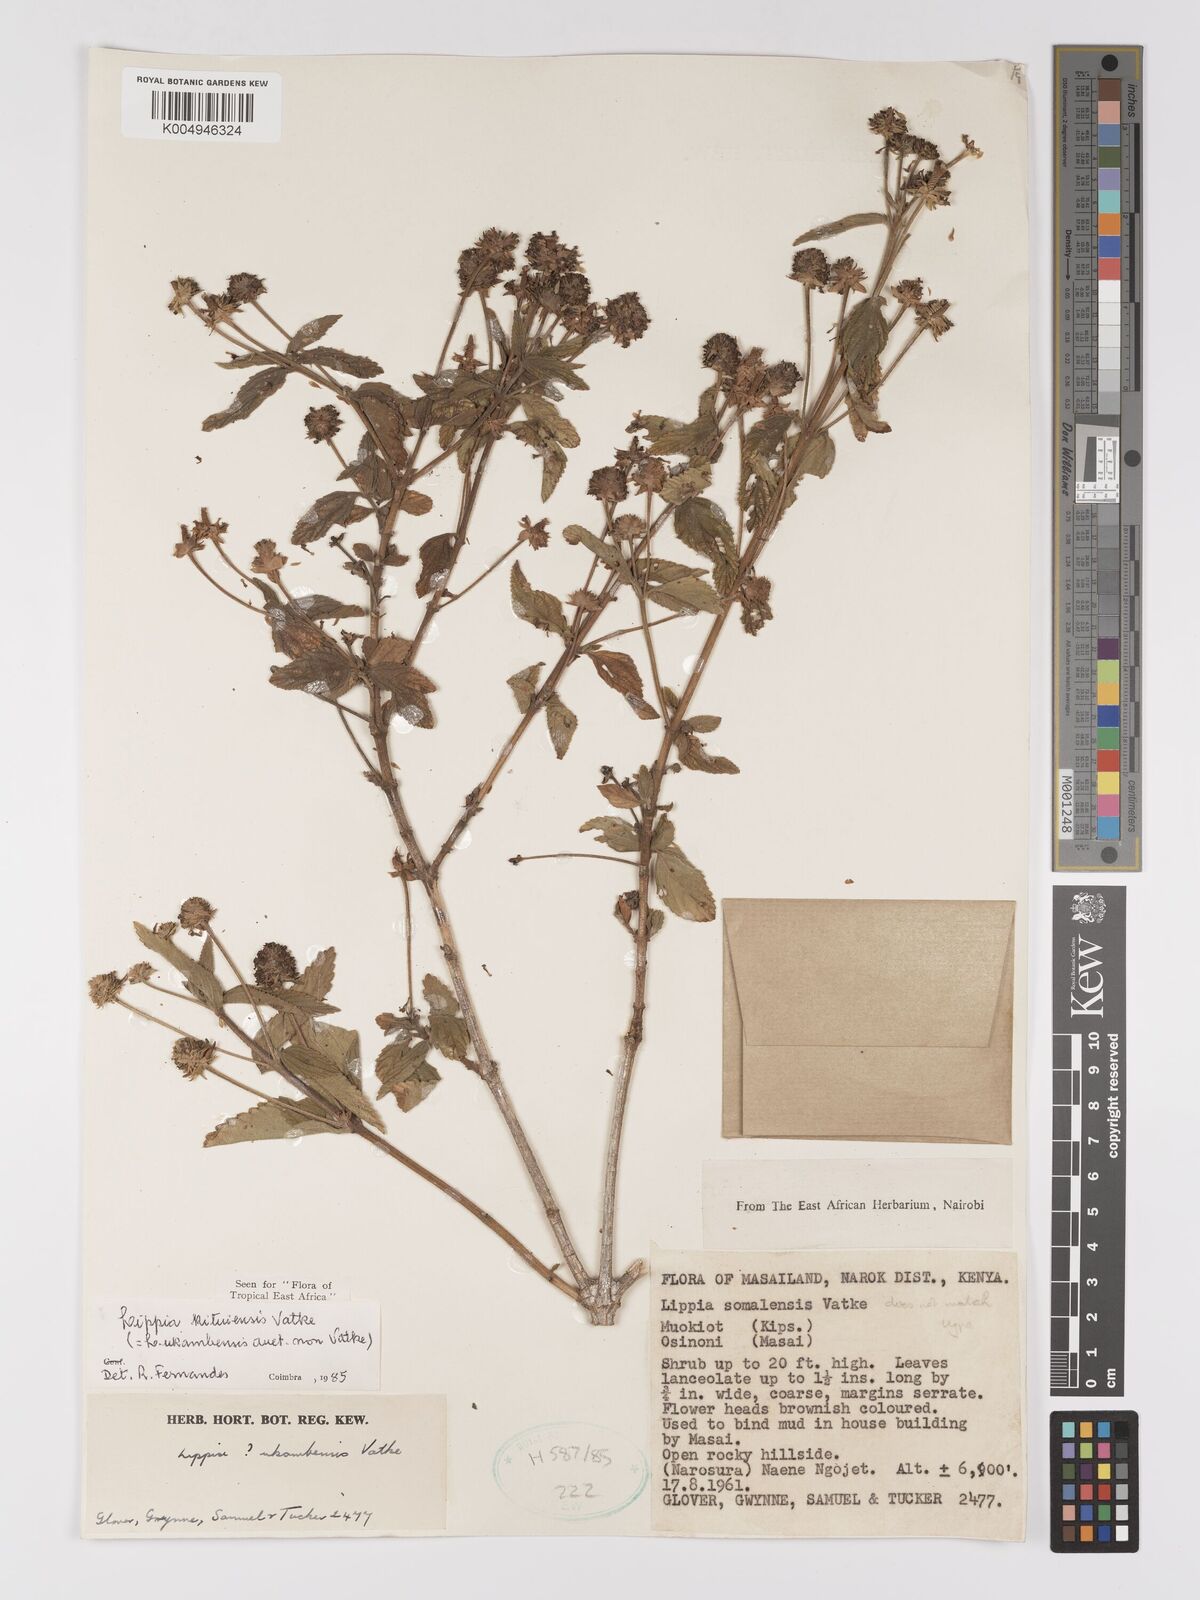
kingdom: Plantae
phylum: Tracheophyta
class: Magnoliopsida
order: Lamiales
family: Verbenaceae
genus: Lantana
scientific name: Lantana ukambensis
